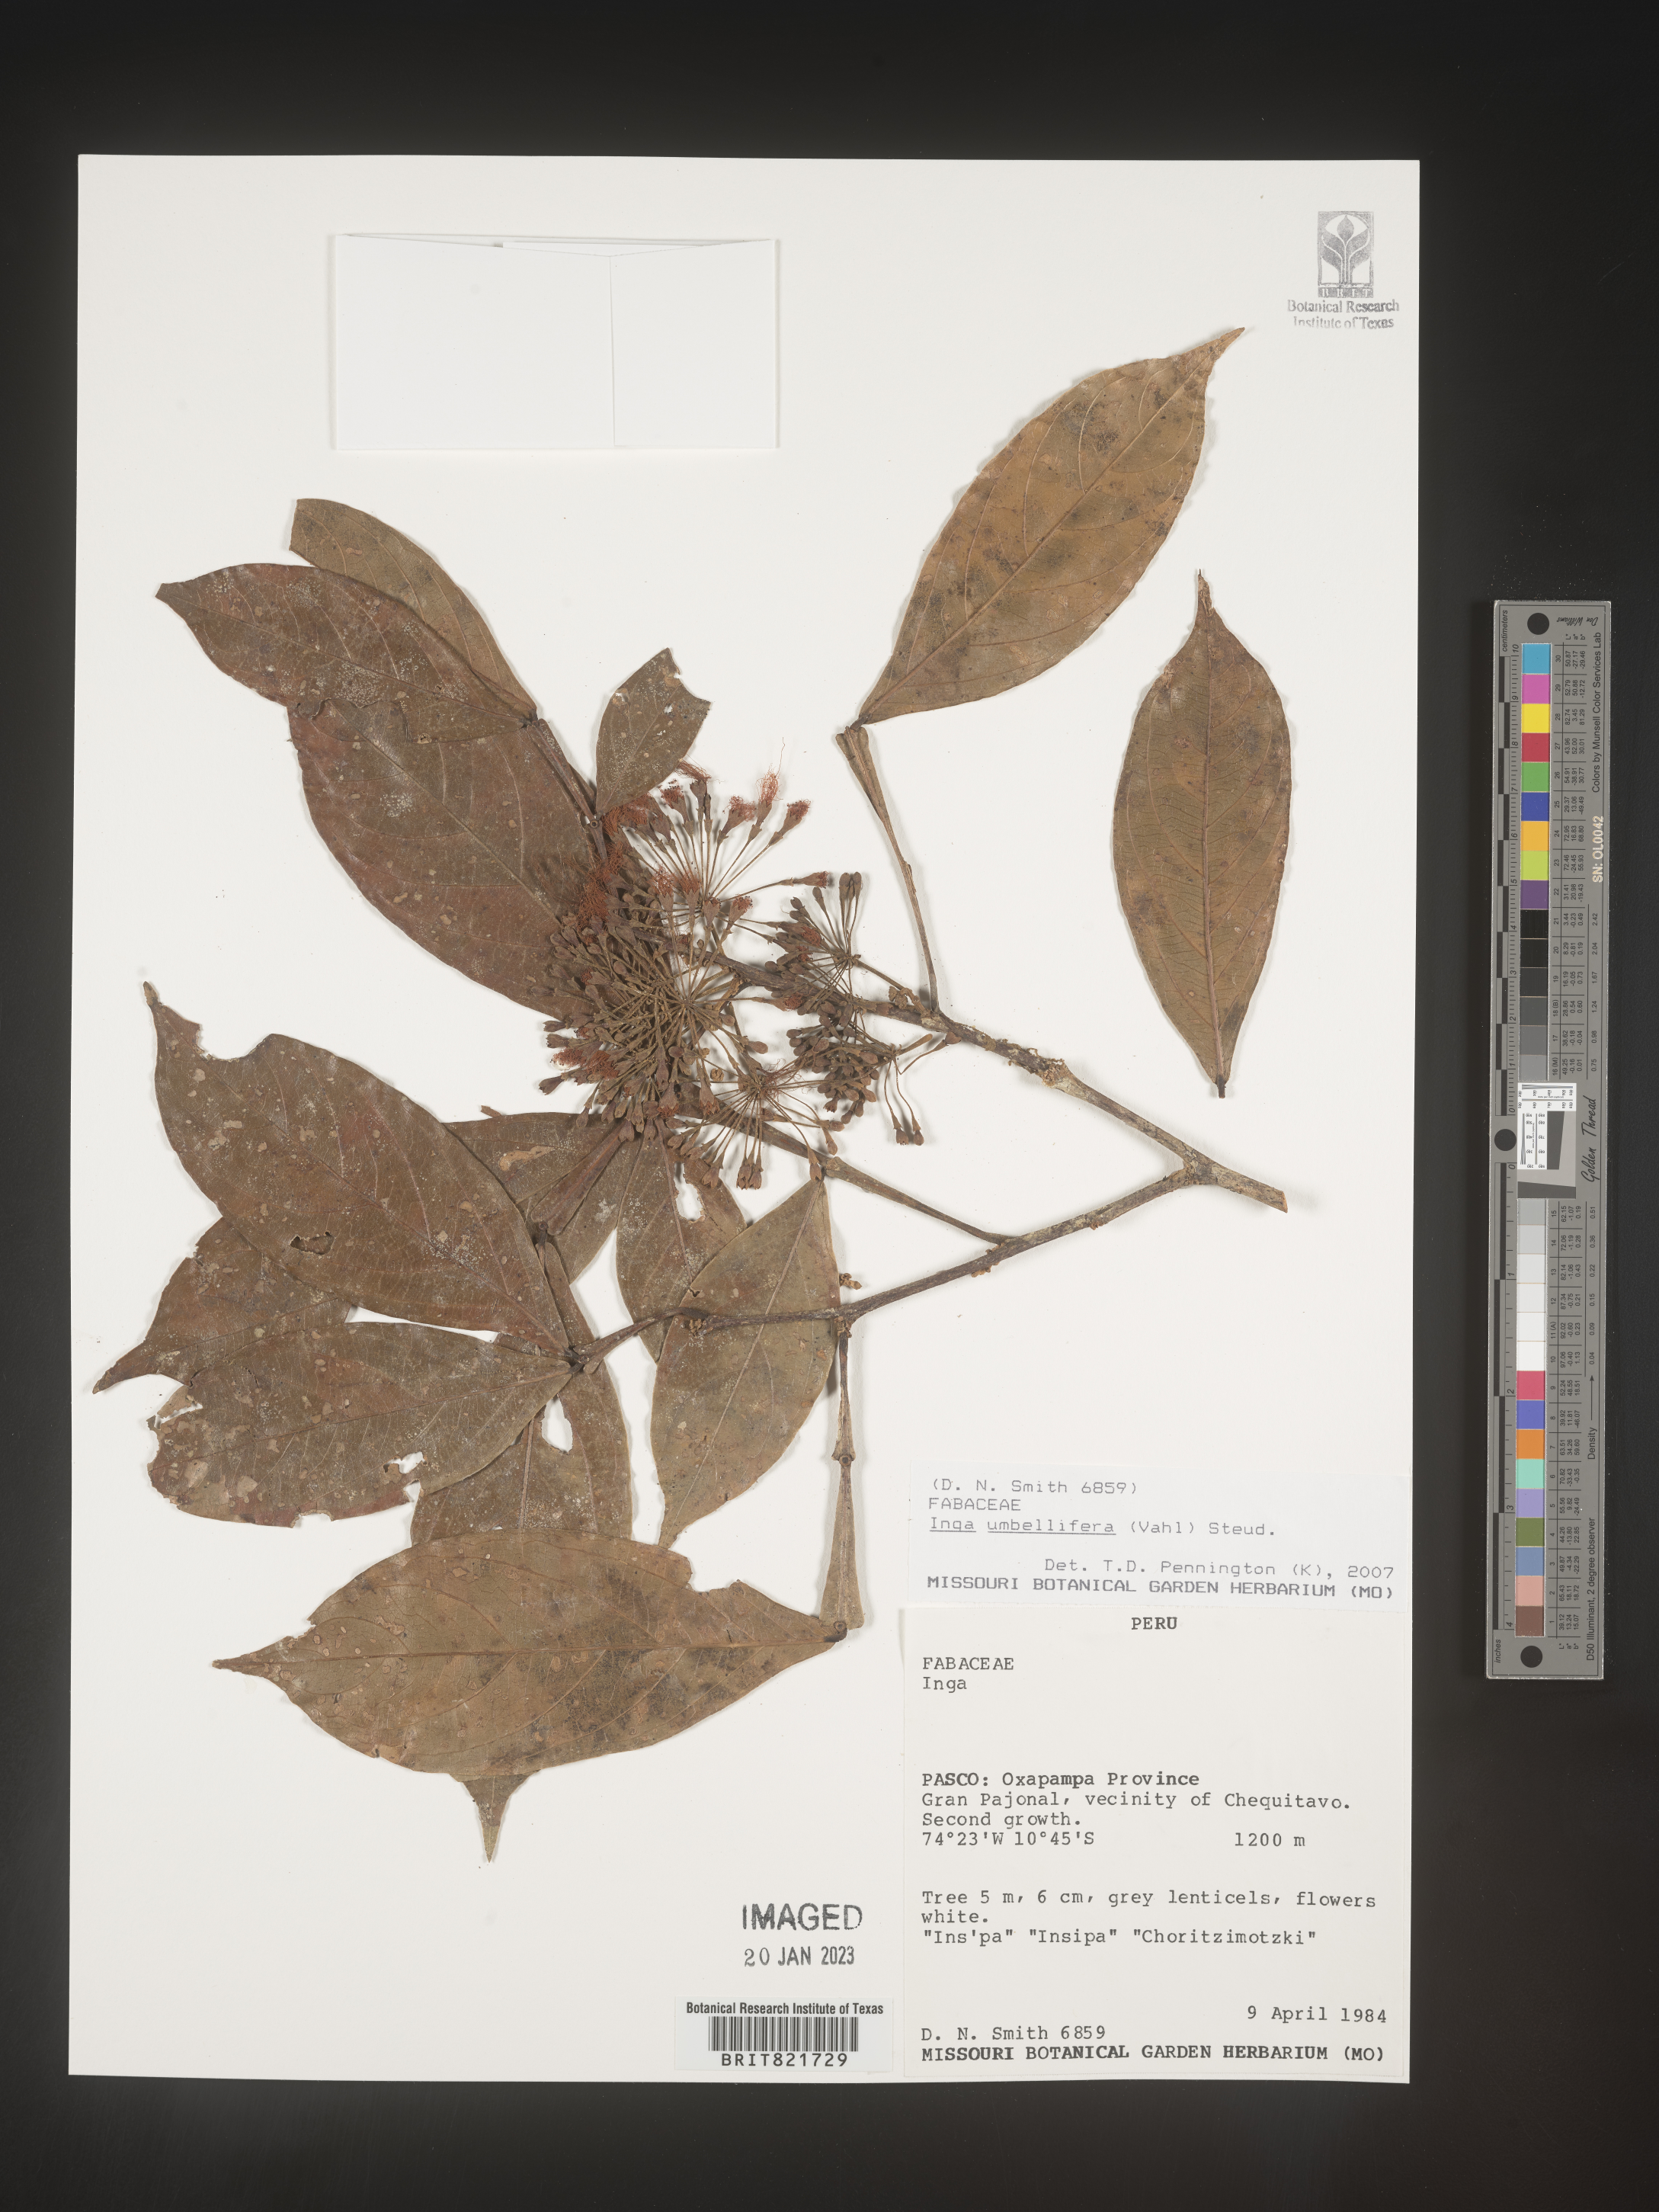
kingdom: Plantae
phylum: Tracheophyta
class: Magnoliopsida
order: Fabales
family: Fabaceae
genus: Inga
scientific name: Inga
